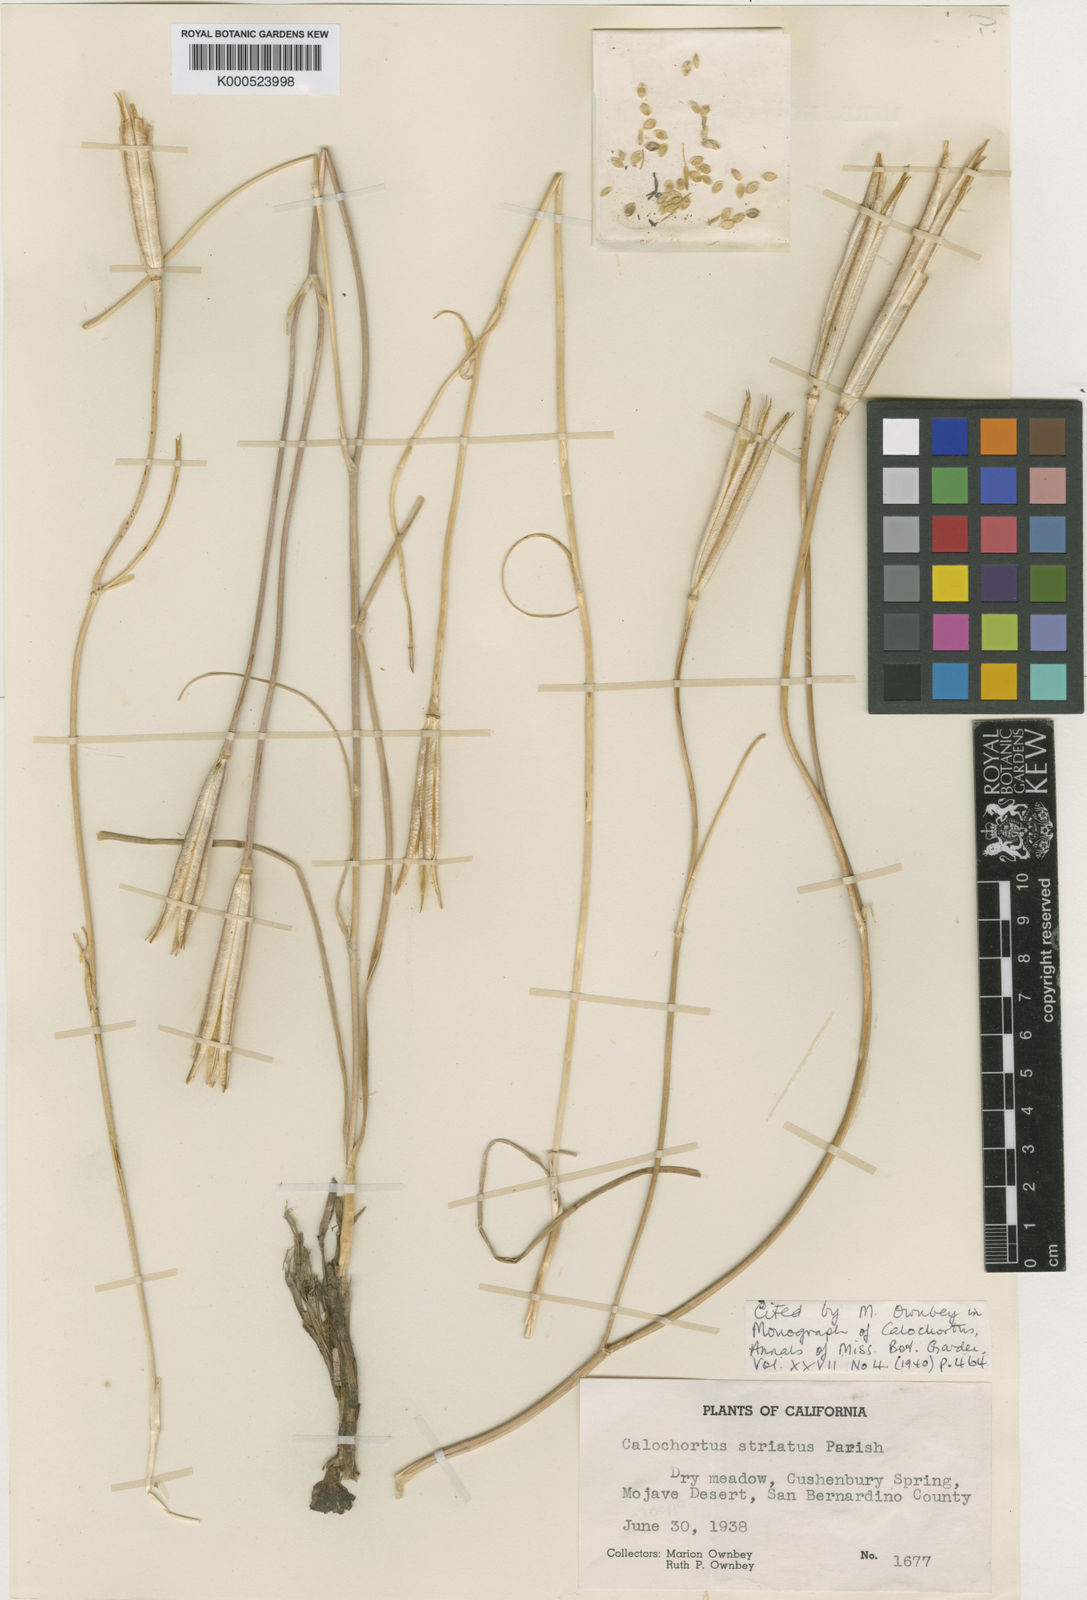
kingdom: Plantae
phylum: Tracheophyta
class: Liliopsida
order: Liliales
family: Liliaceae
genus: Calochortus
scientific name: Calochortus striatus
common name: Alkali mariposa-lily
